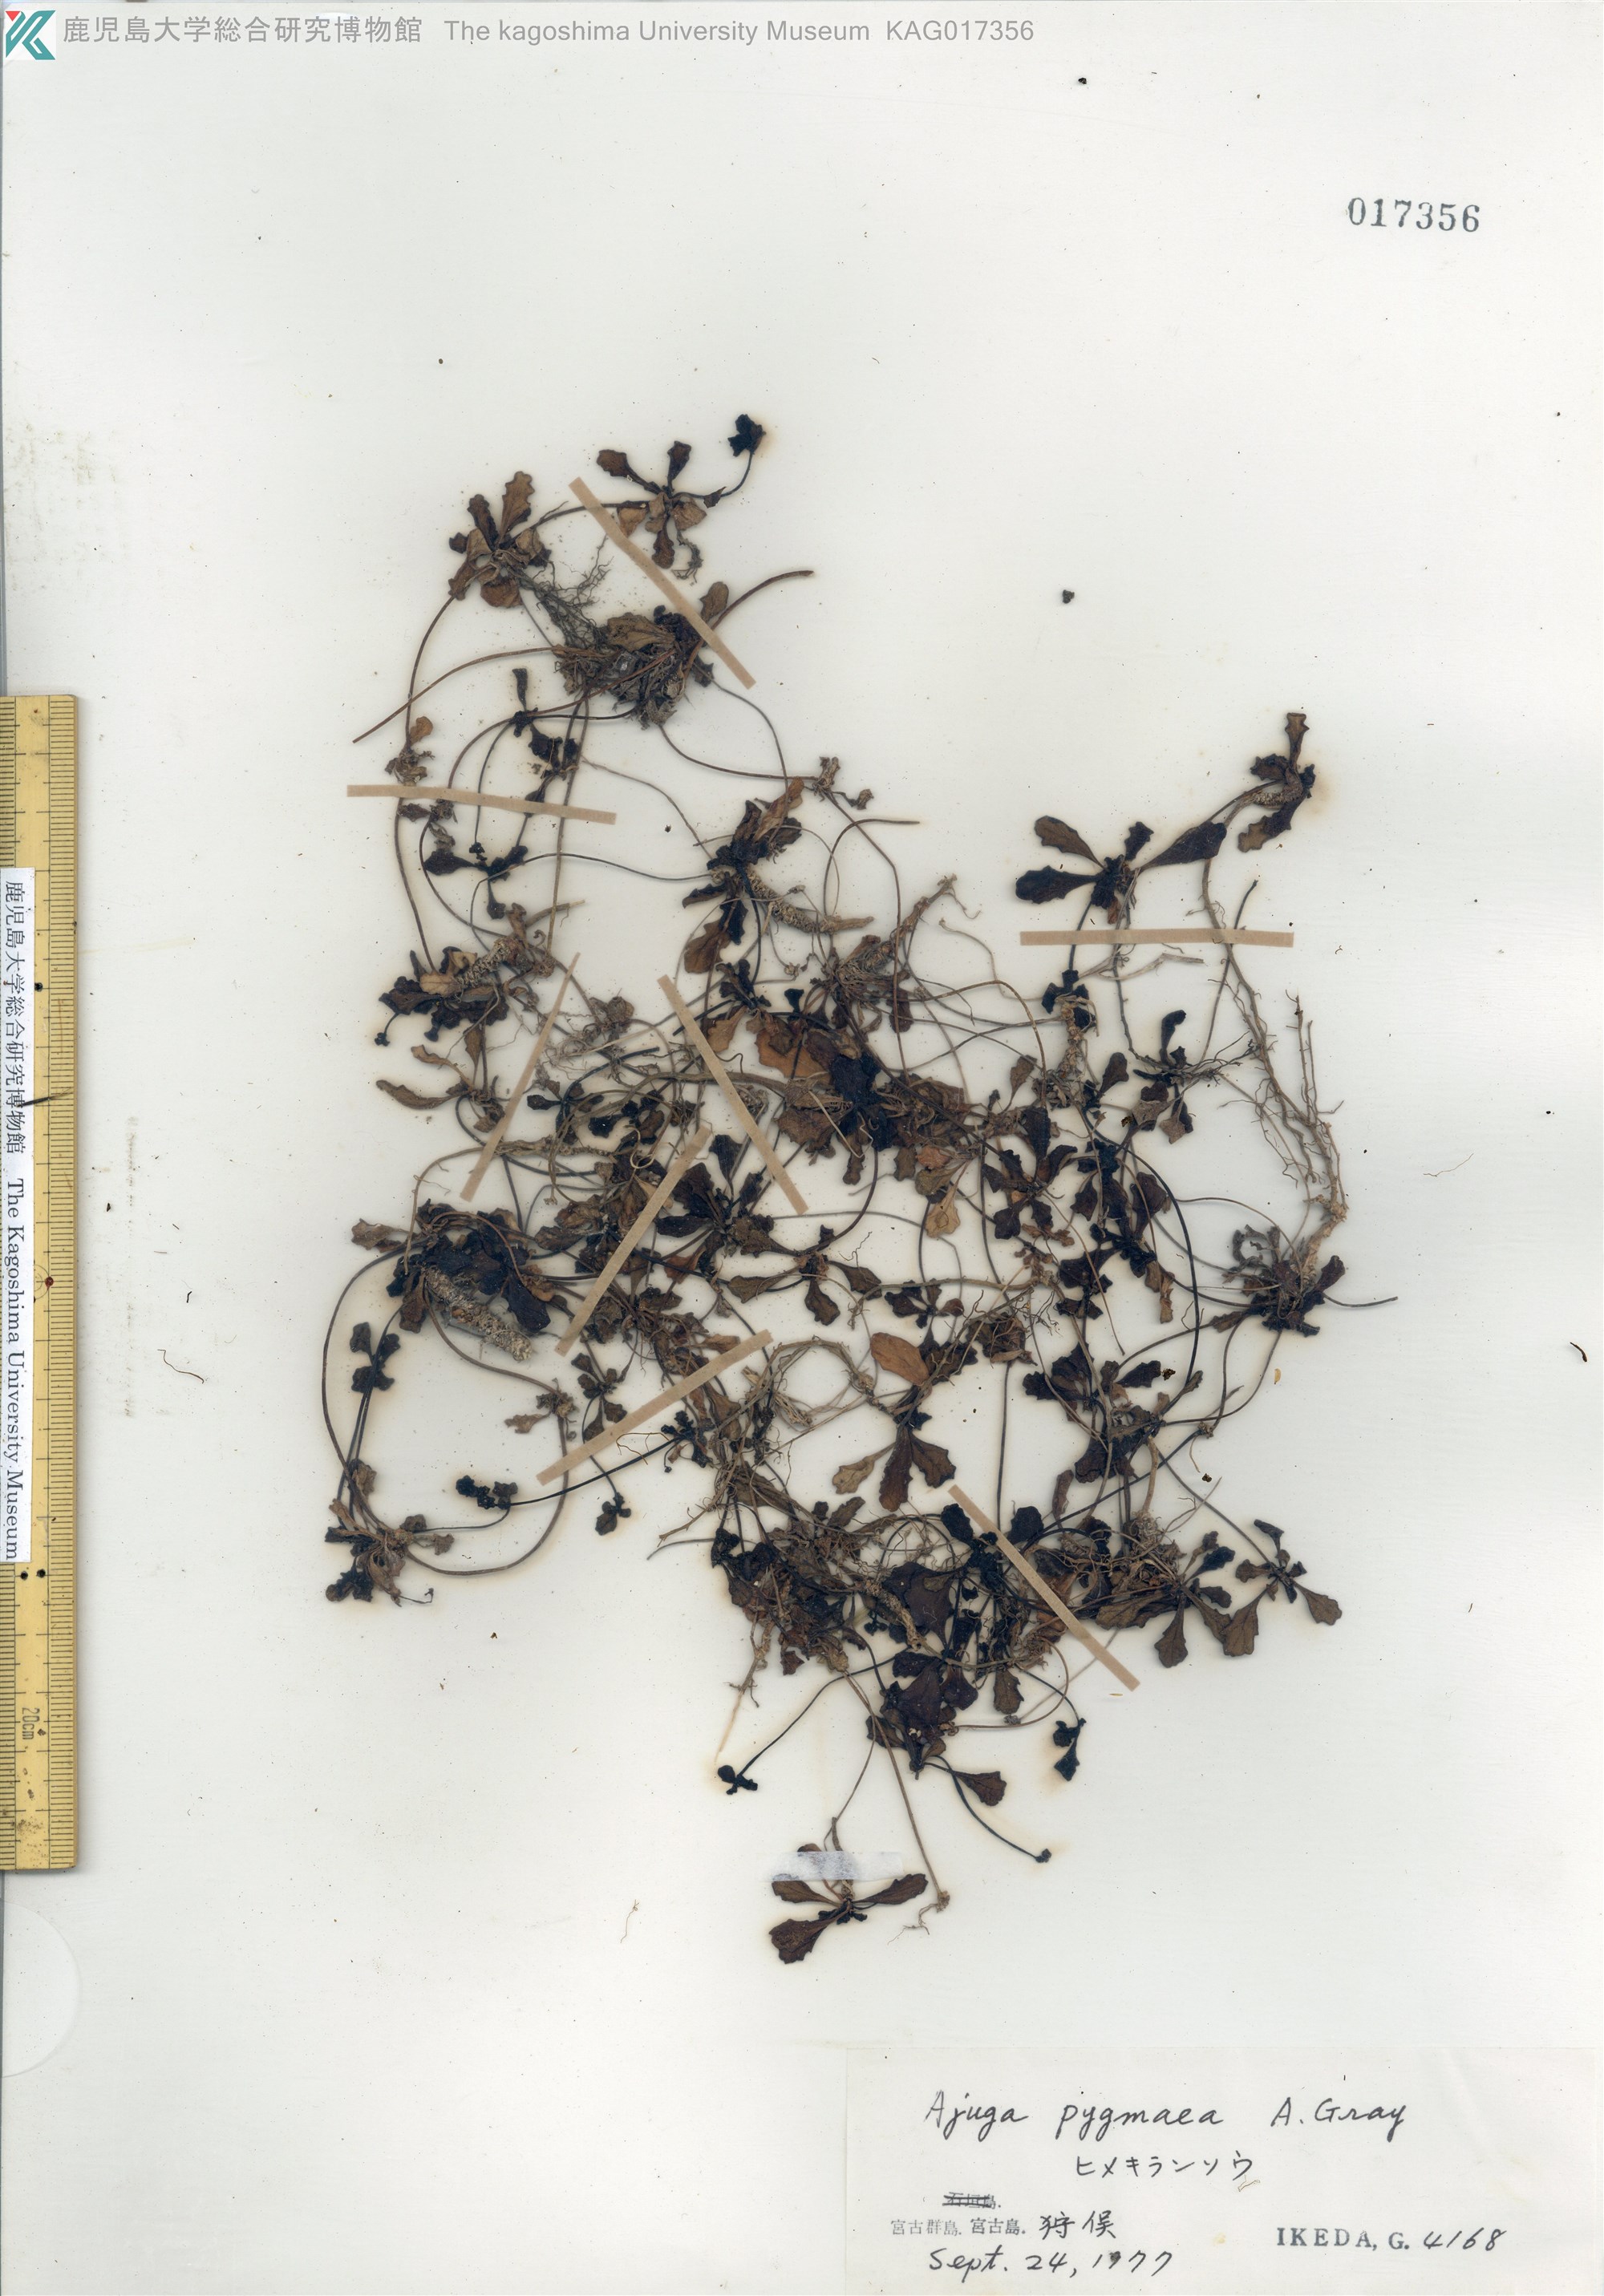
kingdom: Plantae
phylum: Tracheophyta
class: Magnoliopsida
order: Lamiales
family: Lamiaceae
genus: Ajuga
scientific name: Ajuga pygmaea
